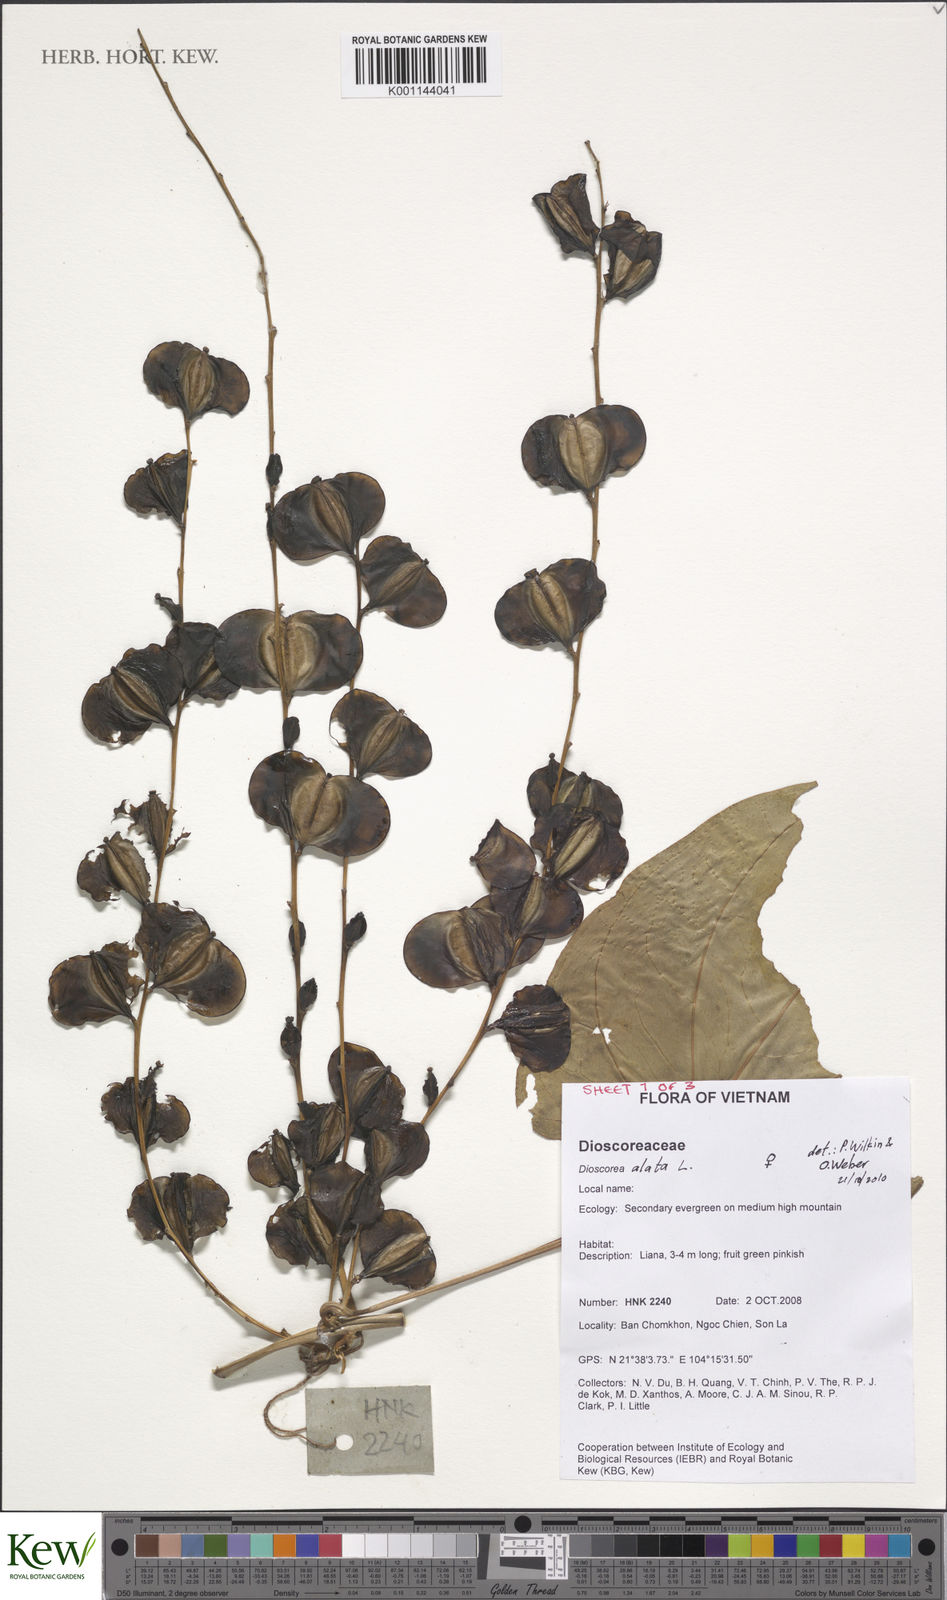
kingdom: Plantae
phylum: Tracheophyta
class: Liliopsida
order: Dioscoreales
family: Dioscoreaceae
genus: Dioscorea
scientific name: Dioscorea alata
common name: Water yam
